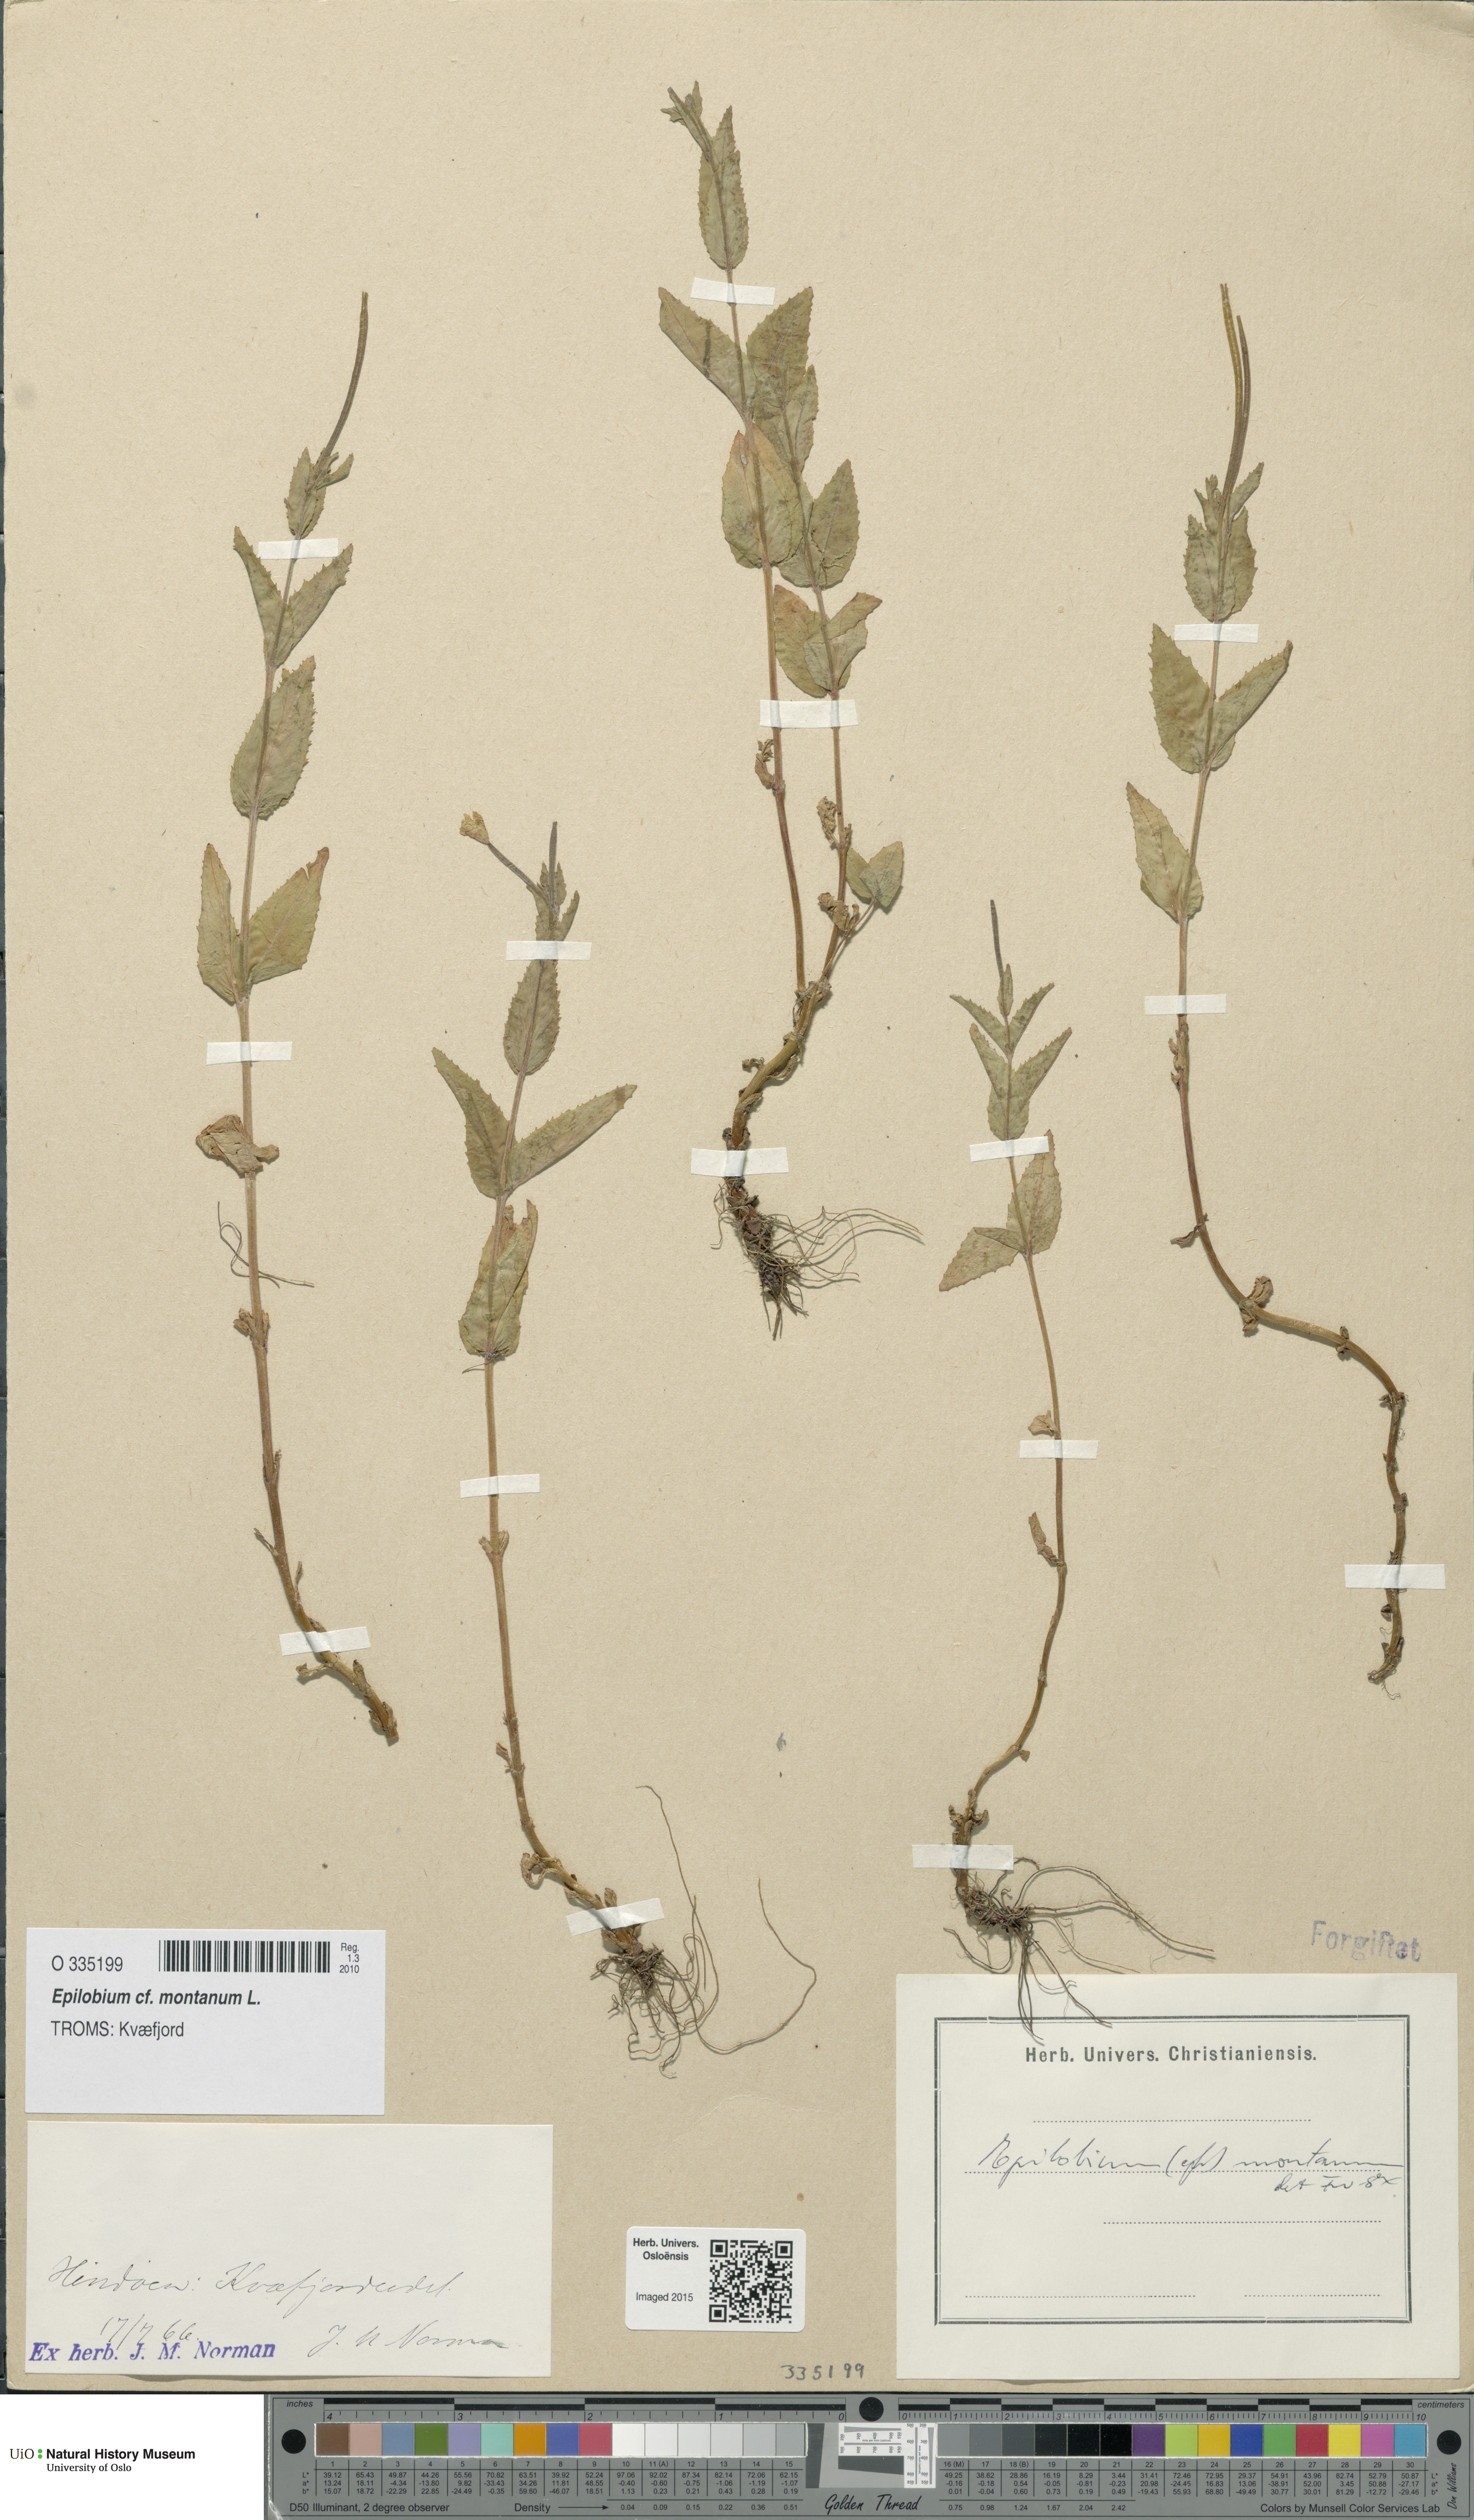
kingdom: Plantae
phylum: Tracheophyta
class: Magnoliopsida
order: Myrtales
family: Onagraceae
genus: Epilobium
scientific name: Epilobium montanum
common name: Broad-leaved willowherb
